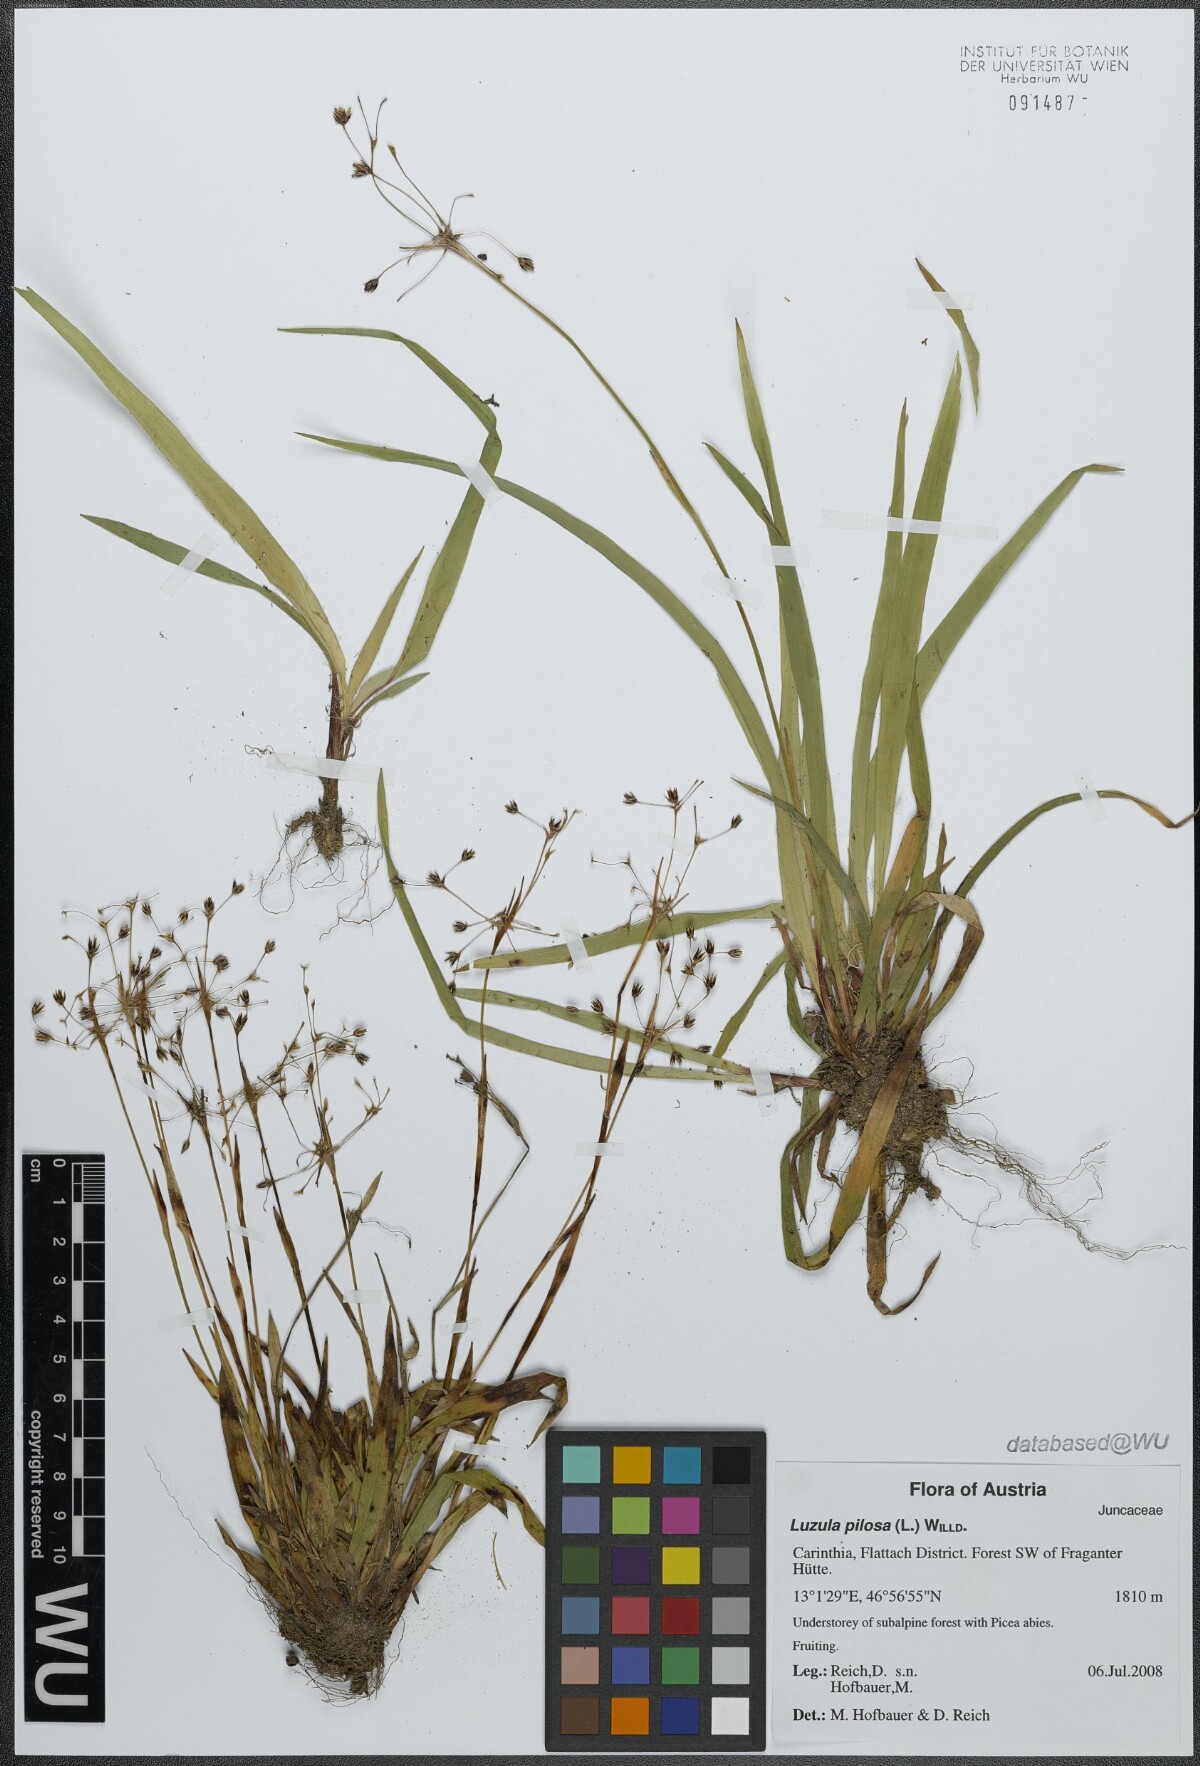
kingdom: Plantae
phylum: Tracheophyta
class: Liliopsida
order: Poales
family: Juncaceae
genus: Luzula
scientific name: Luzula pilosa
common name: Hairy wood-rush
